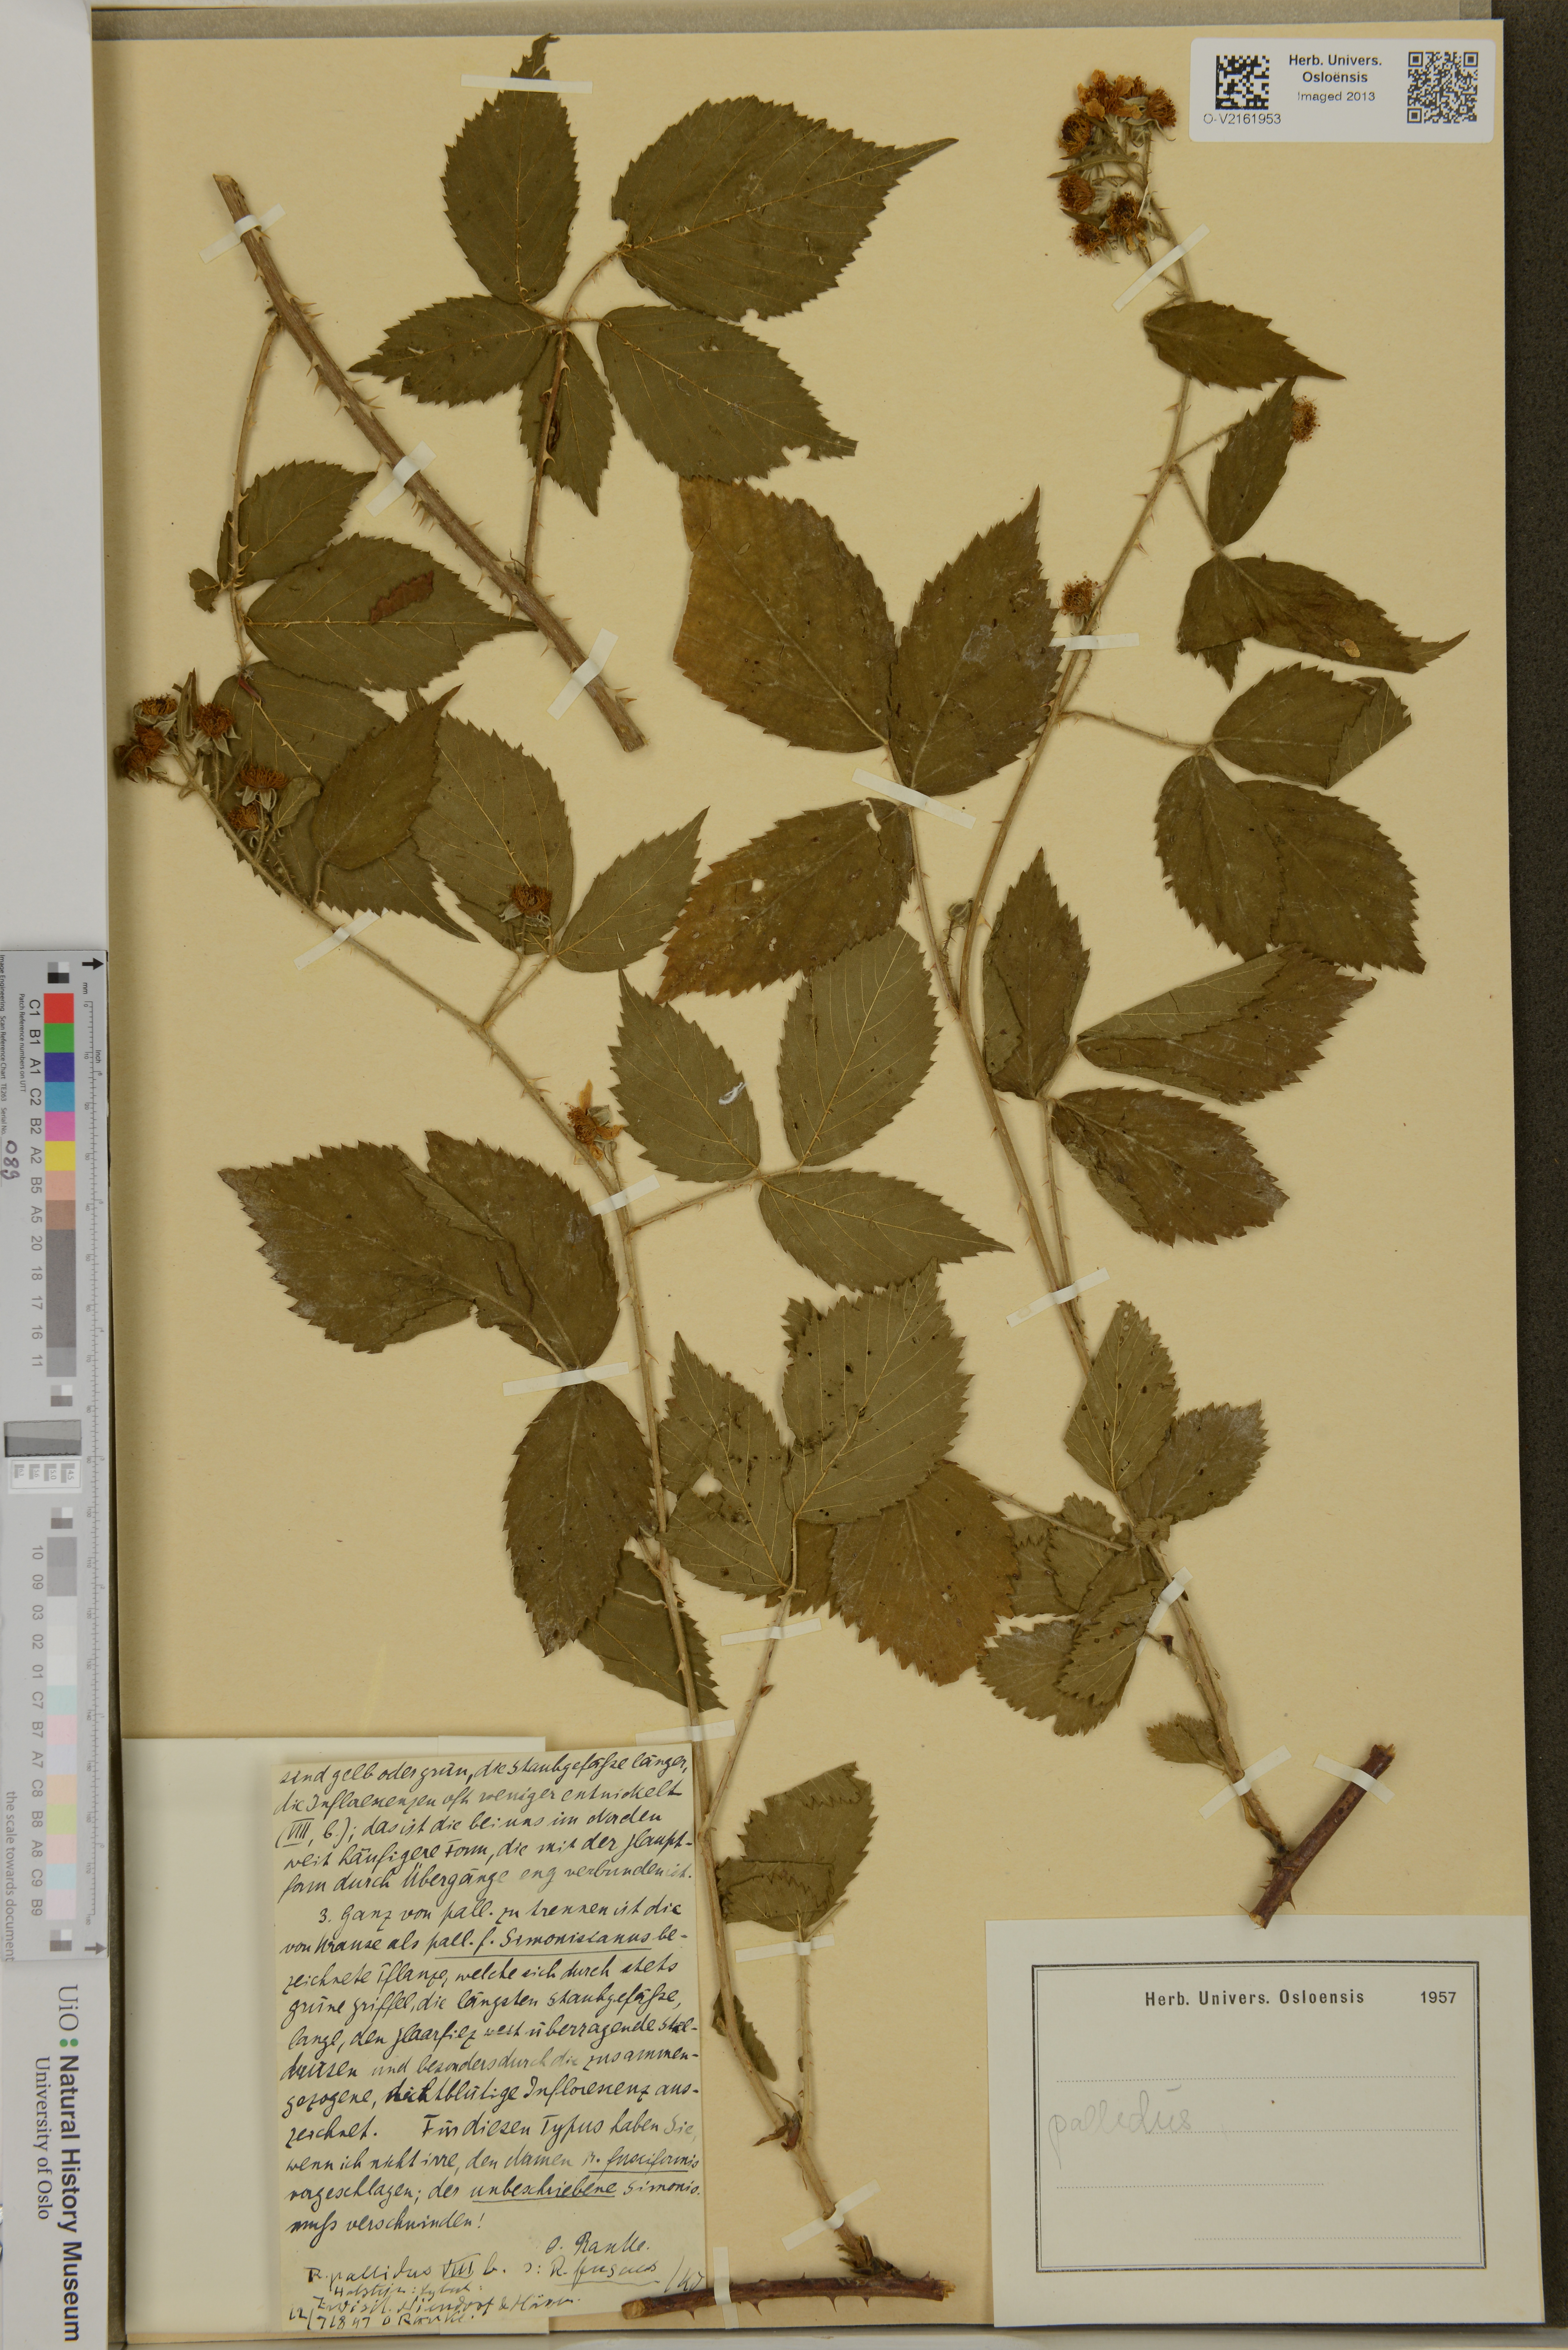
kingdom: Plantae
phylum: Tracheophyta
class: Magnoliopsida
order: Rosales
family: Rosaceae
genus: Rubus
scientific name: Rubus pallidus
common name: Pale bramble
